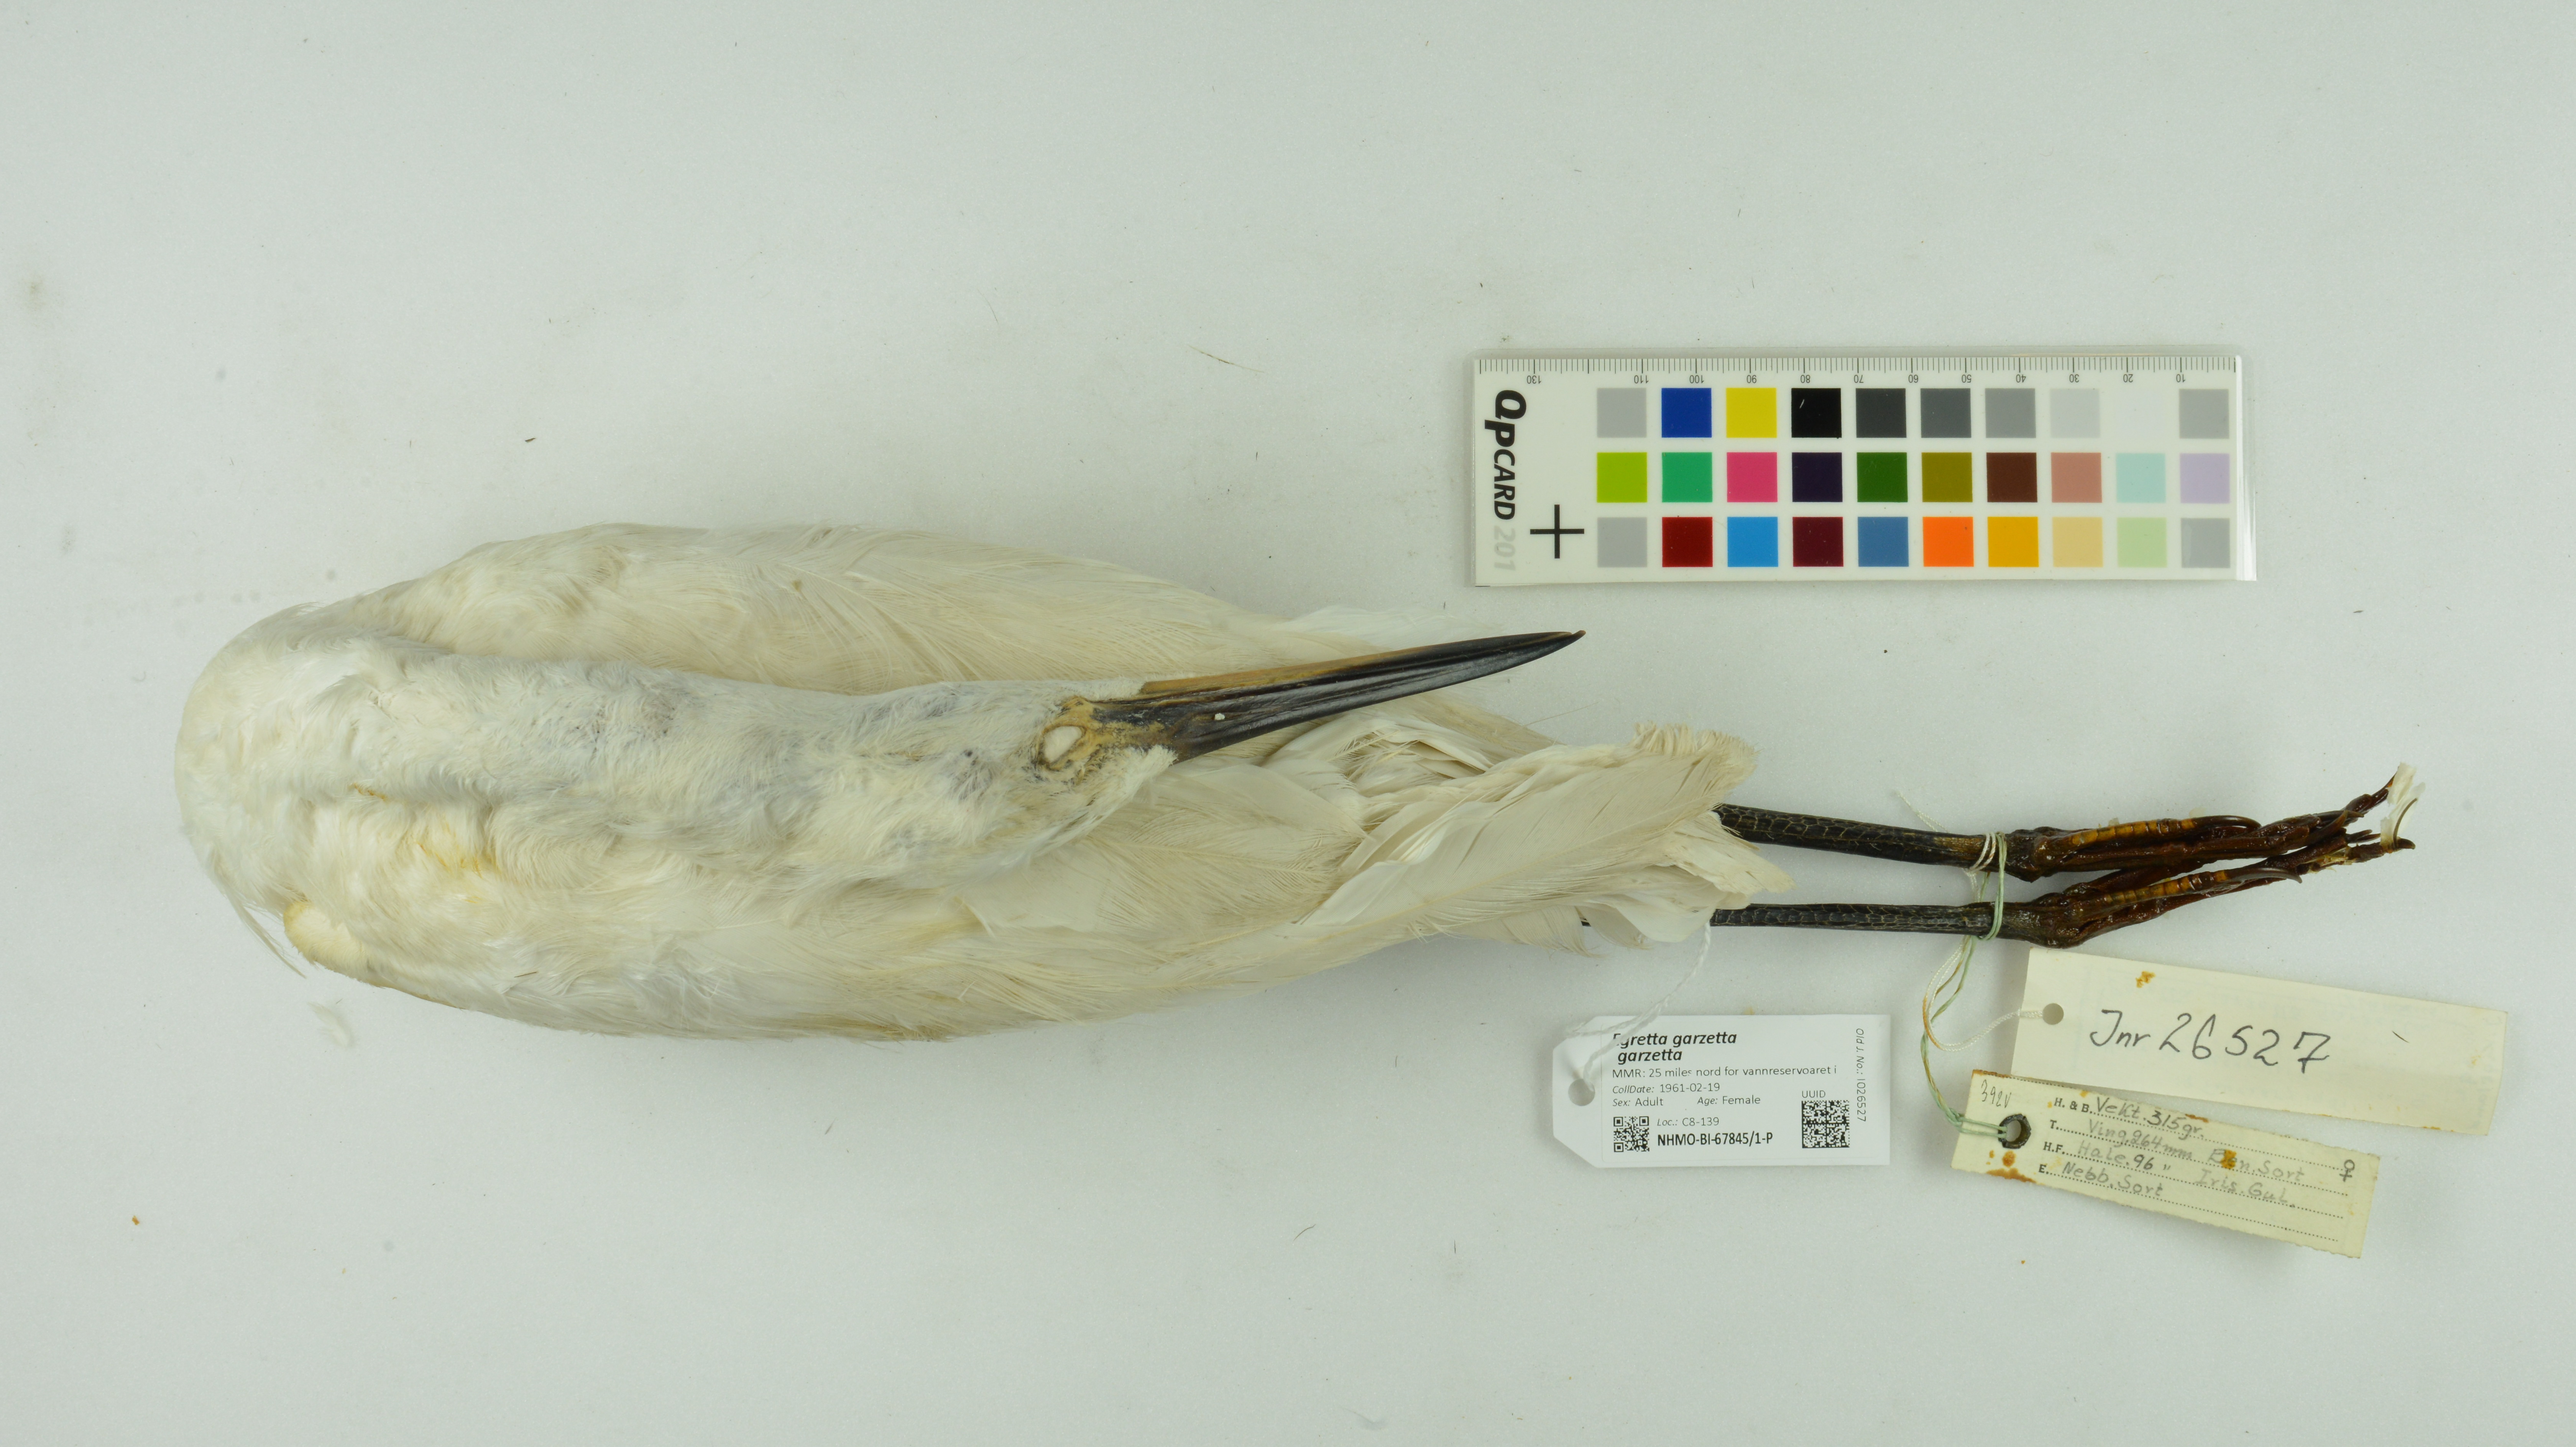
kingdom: Animalia
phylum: Chordata
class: Aves
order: Pelecaniformes
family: Ardeidae
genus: Egretta
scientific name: Egretta garzetta
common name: Little egret
